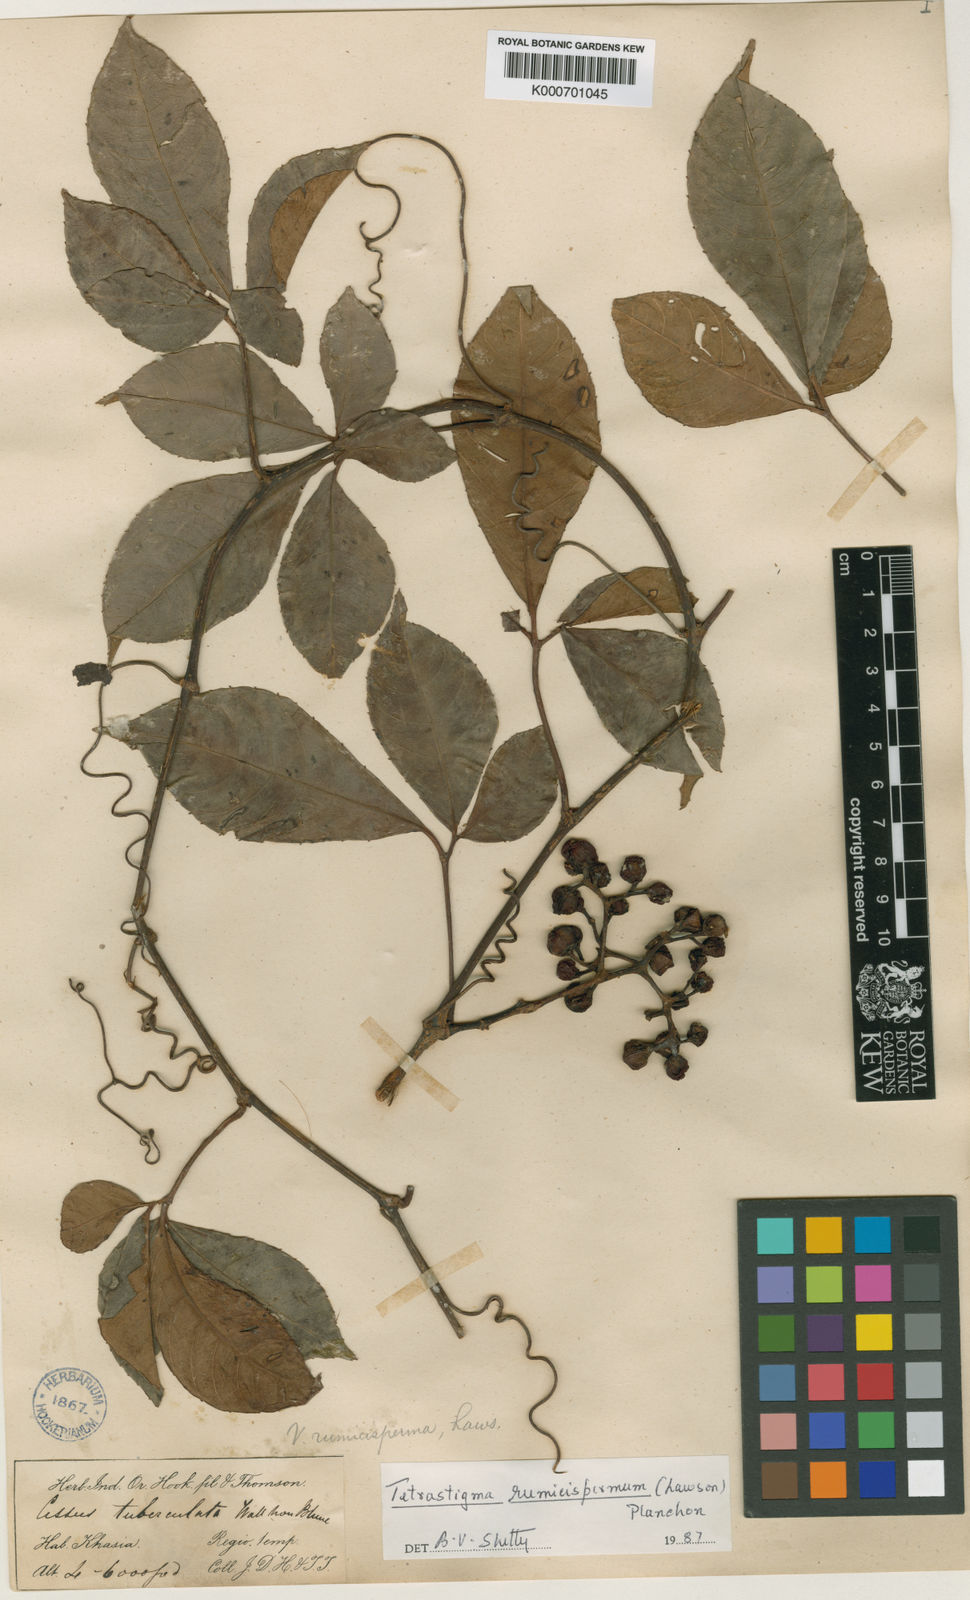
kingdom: Plantae
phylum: Tracheophyta
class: Magnoliopsida
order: Vitales
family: Vitaceae
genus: Tetrastigma
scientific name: Tetrastigma rumicispermum
